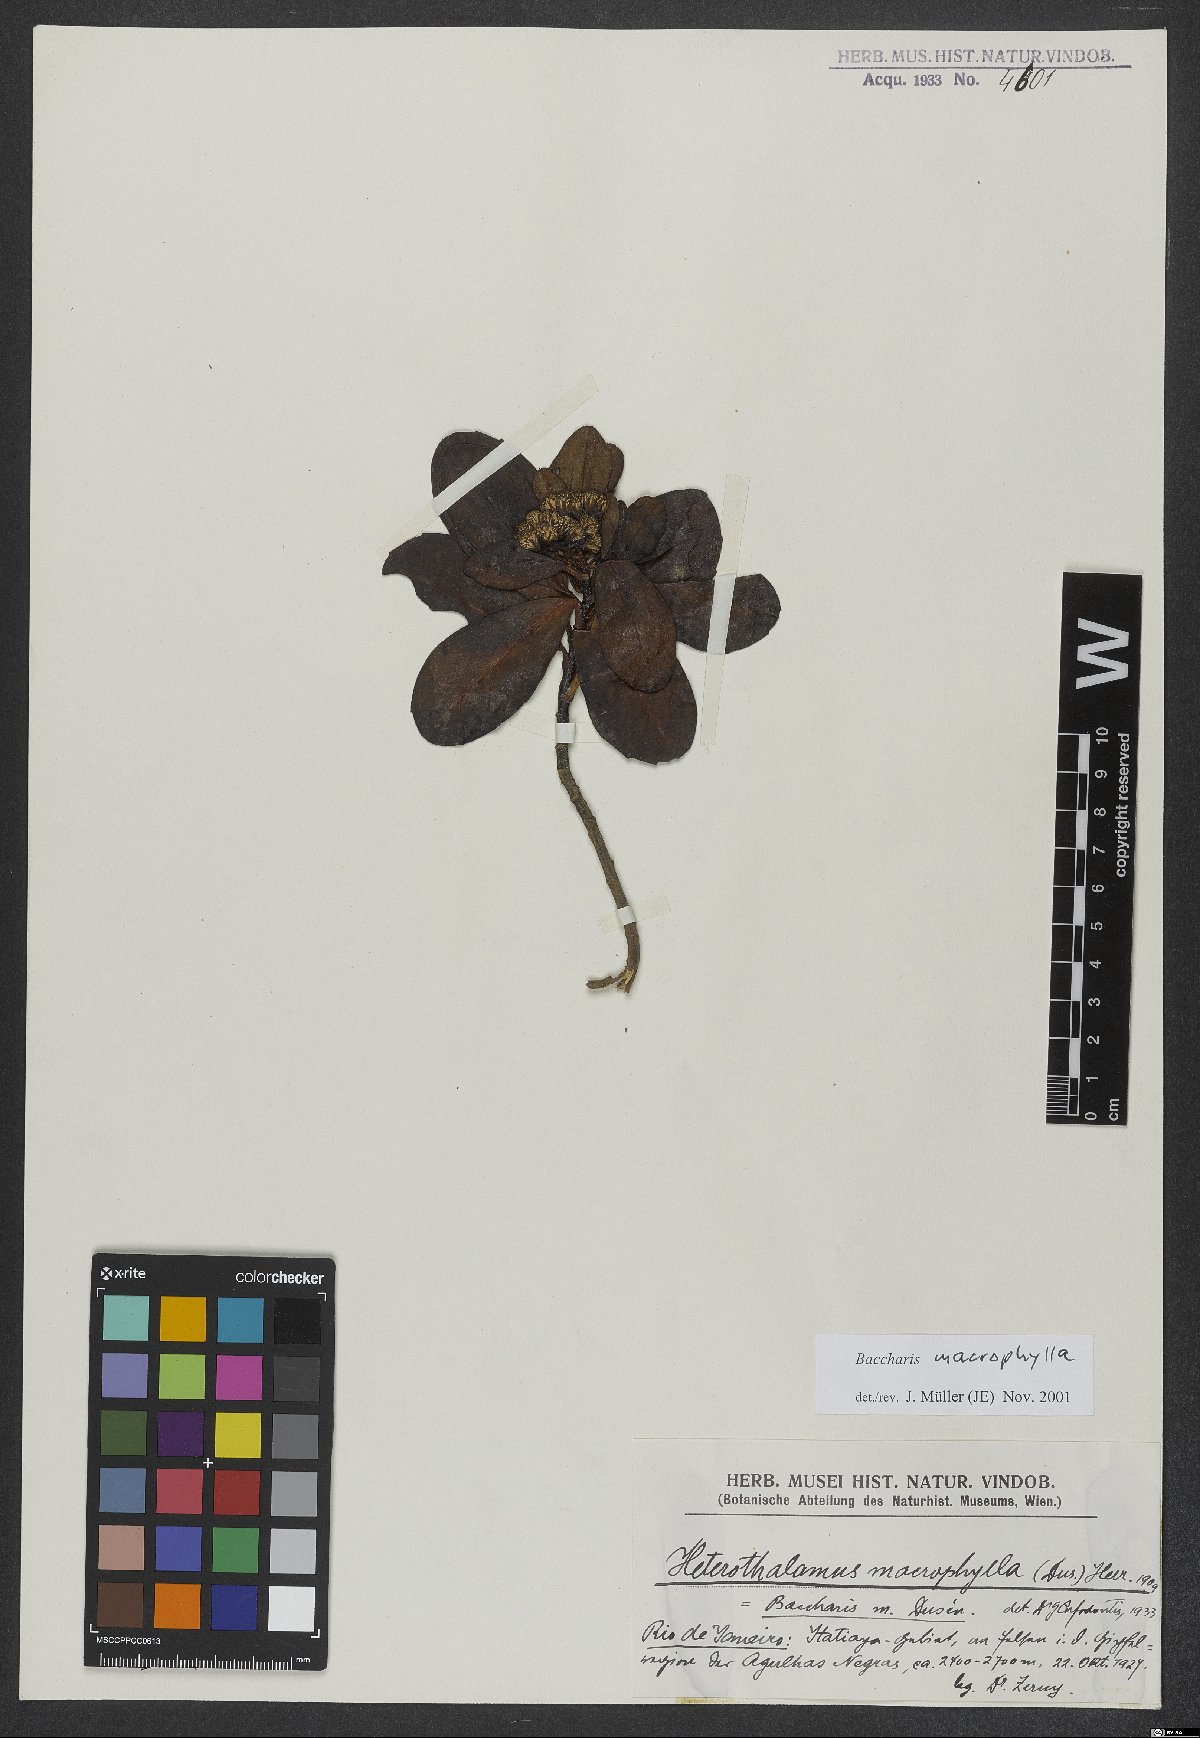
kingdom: Plantae
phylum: Tracheophyta
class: Magnoliopsida
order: Asterales
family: Asteraceae
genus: Pseudobaccharis
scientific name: Pseudobaccharis macrophylla
